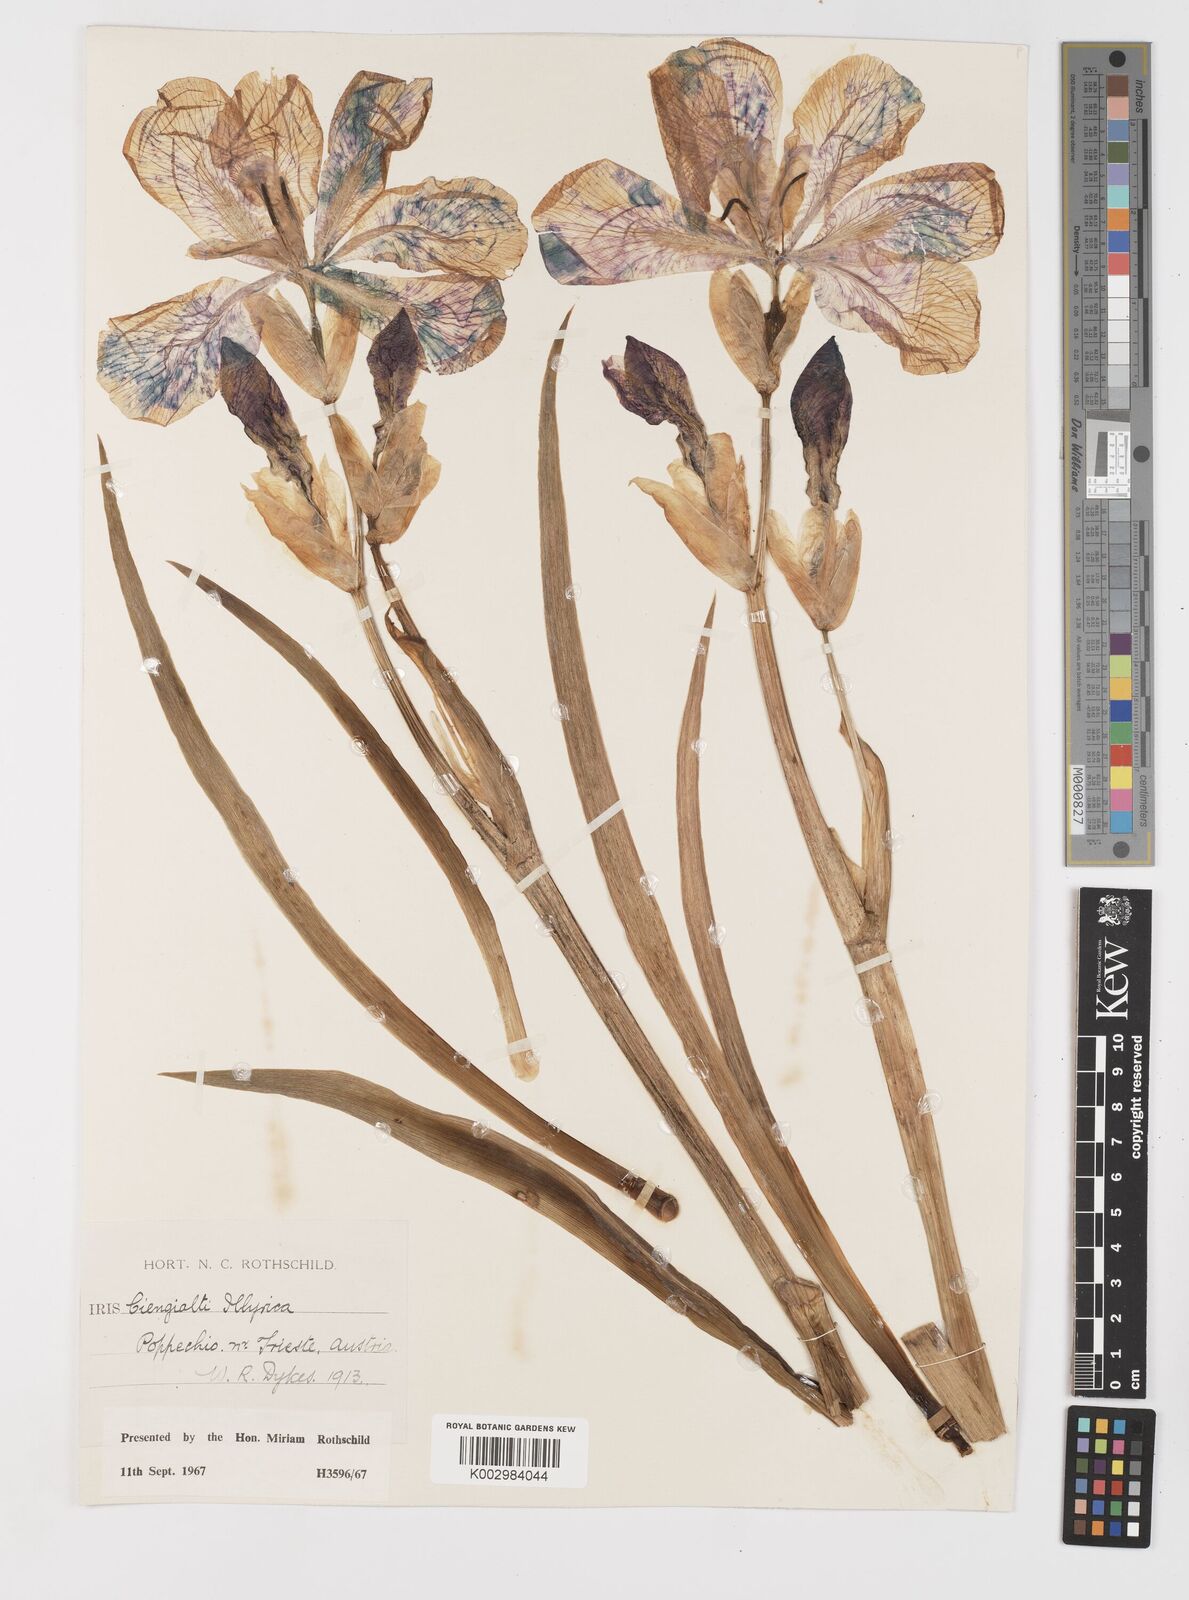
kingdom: Plantae
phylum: Tracheophyta
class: Liliopsida
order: Asparagales
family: Iridaceae
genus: Iris
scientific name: Iris pallida
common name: Sweet iris
